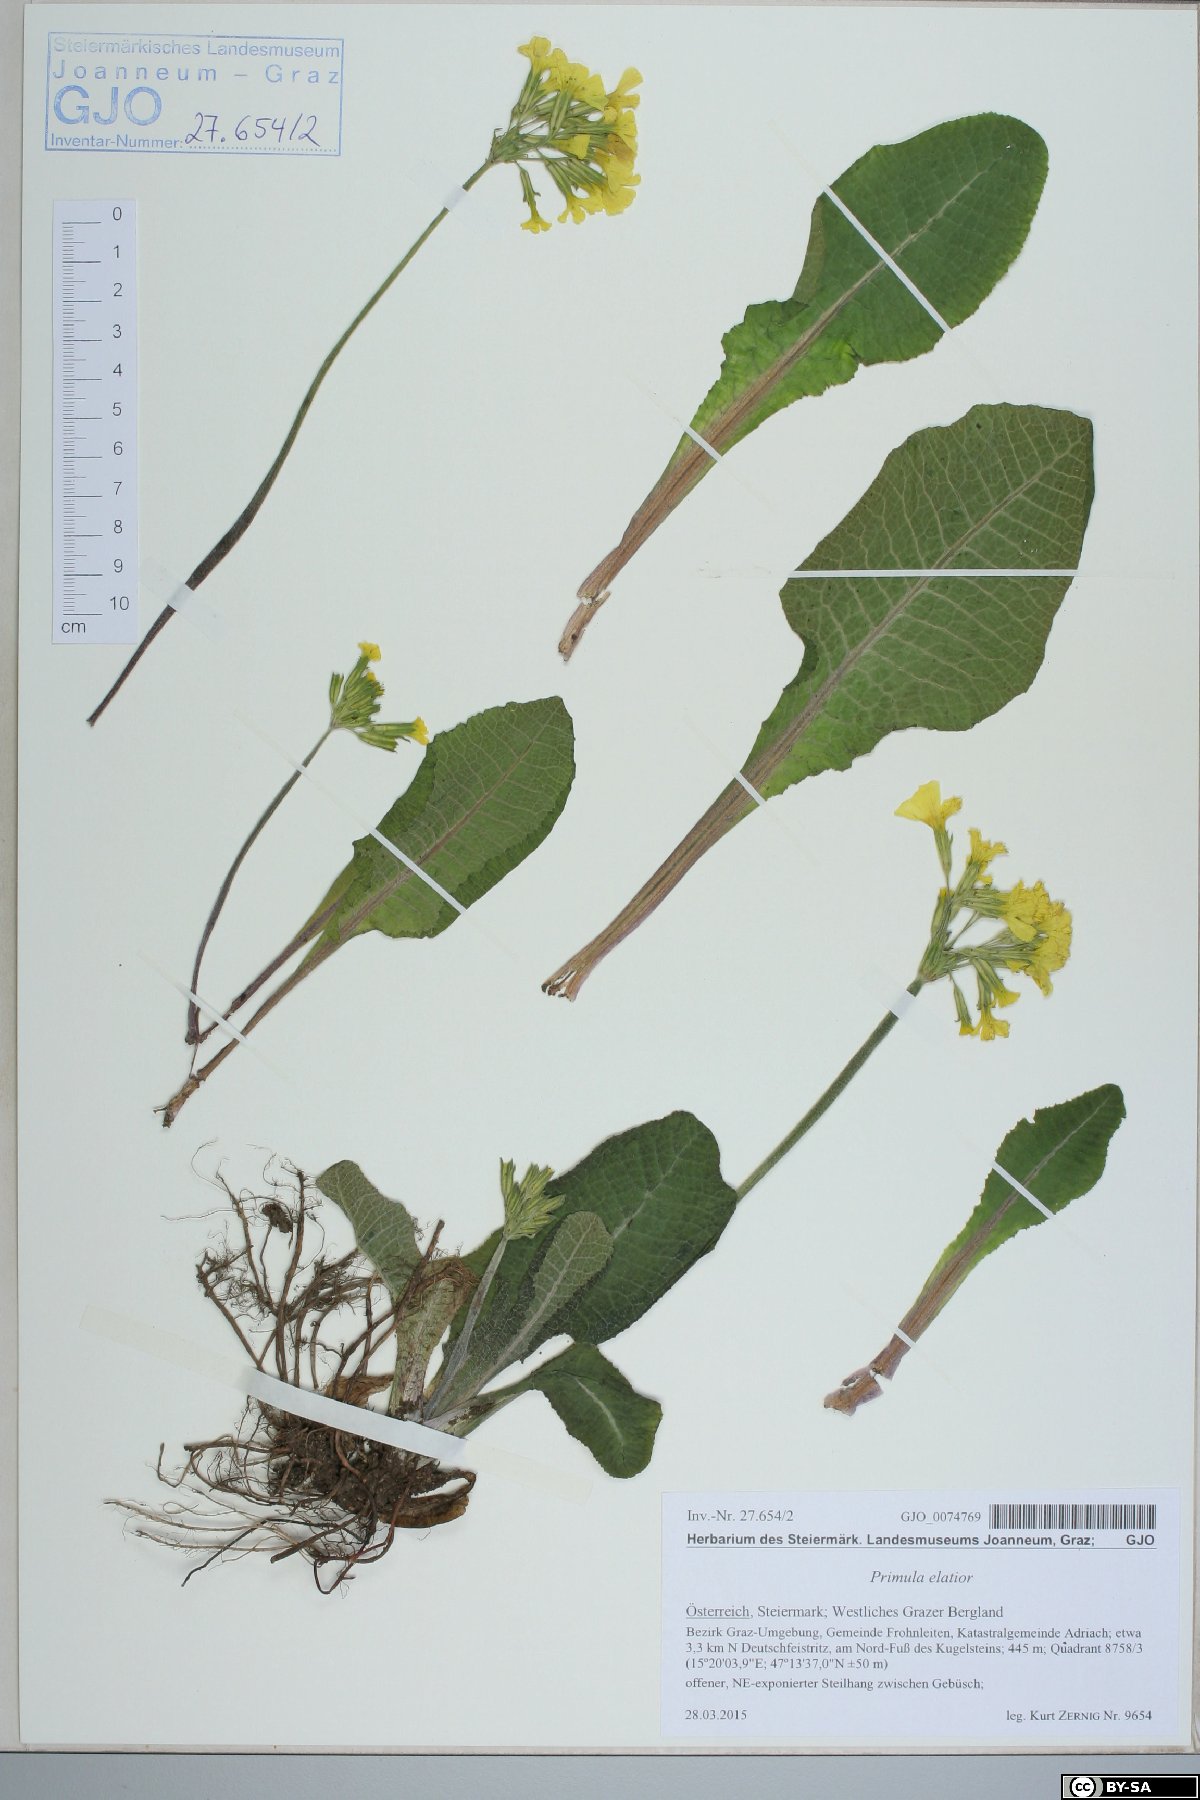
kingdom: Plantae
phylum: Tracheophyta
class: Magnoliopsida
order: Ericales
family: Primulaceae
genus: Primula
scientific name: Primula elatior
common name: Oxlip
